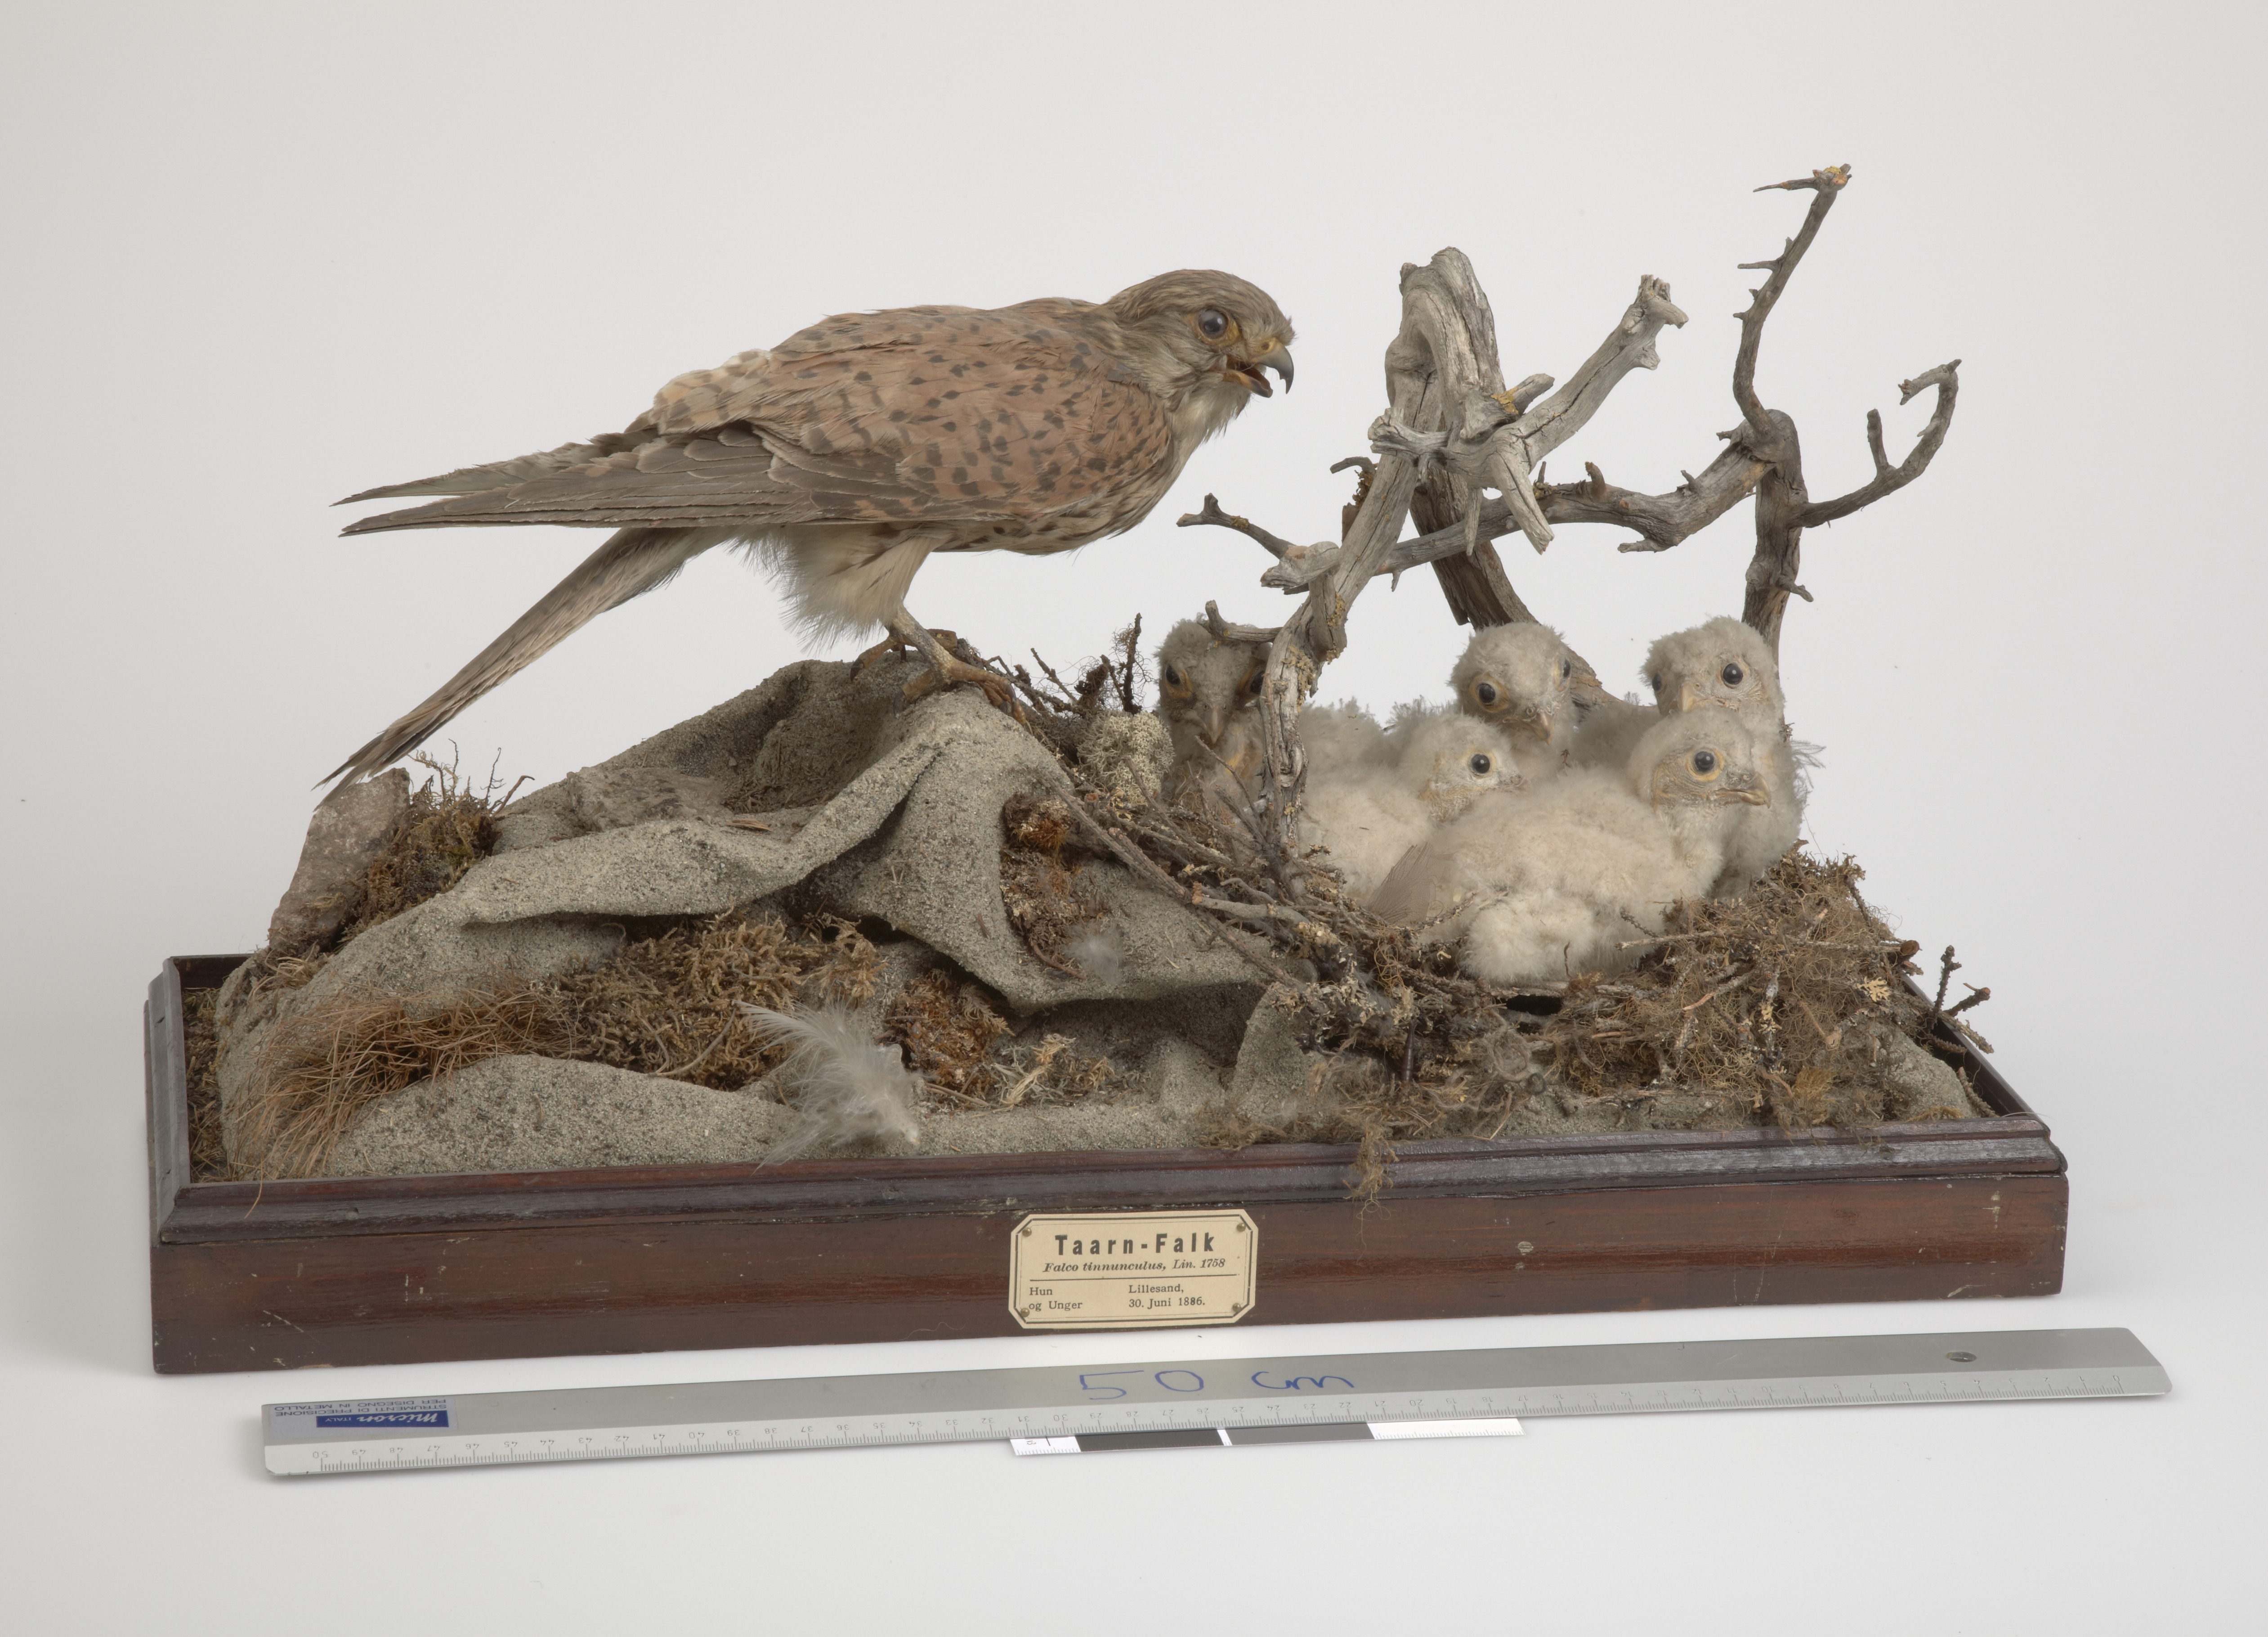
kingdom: Animalia
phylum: Chordata
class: Aves
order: Falconiformes
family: Falconidae
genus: Falco
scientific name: Falco tinnunculus
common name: Common kestrel
